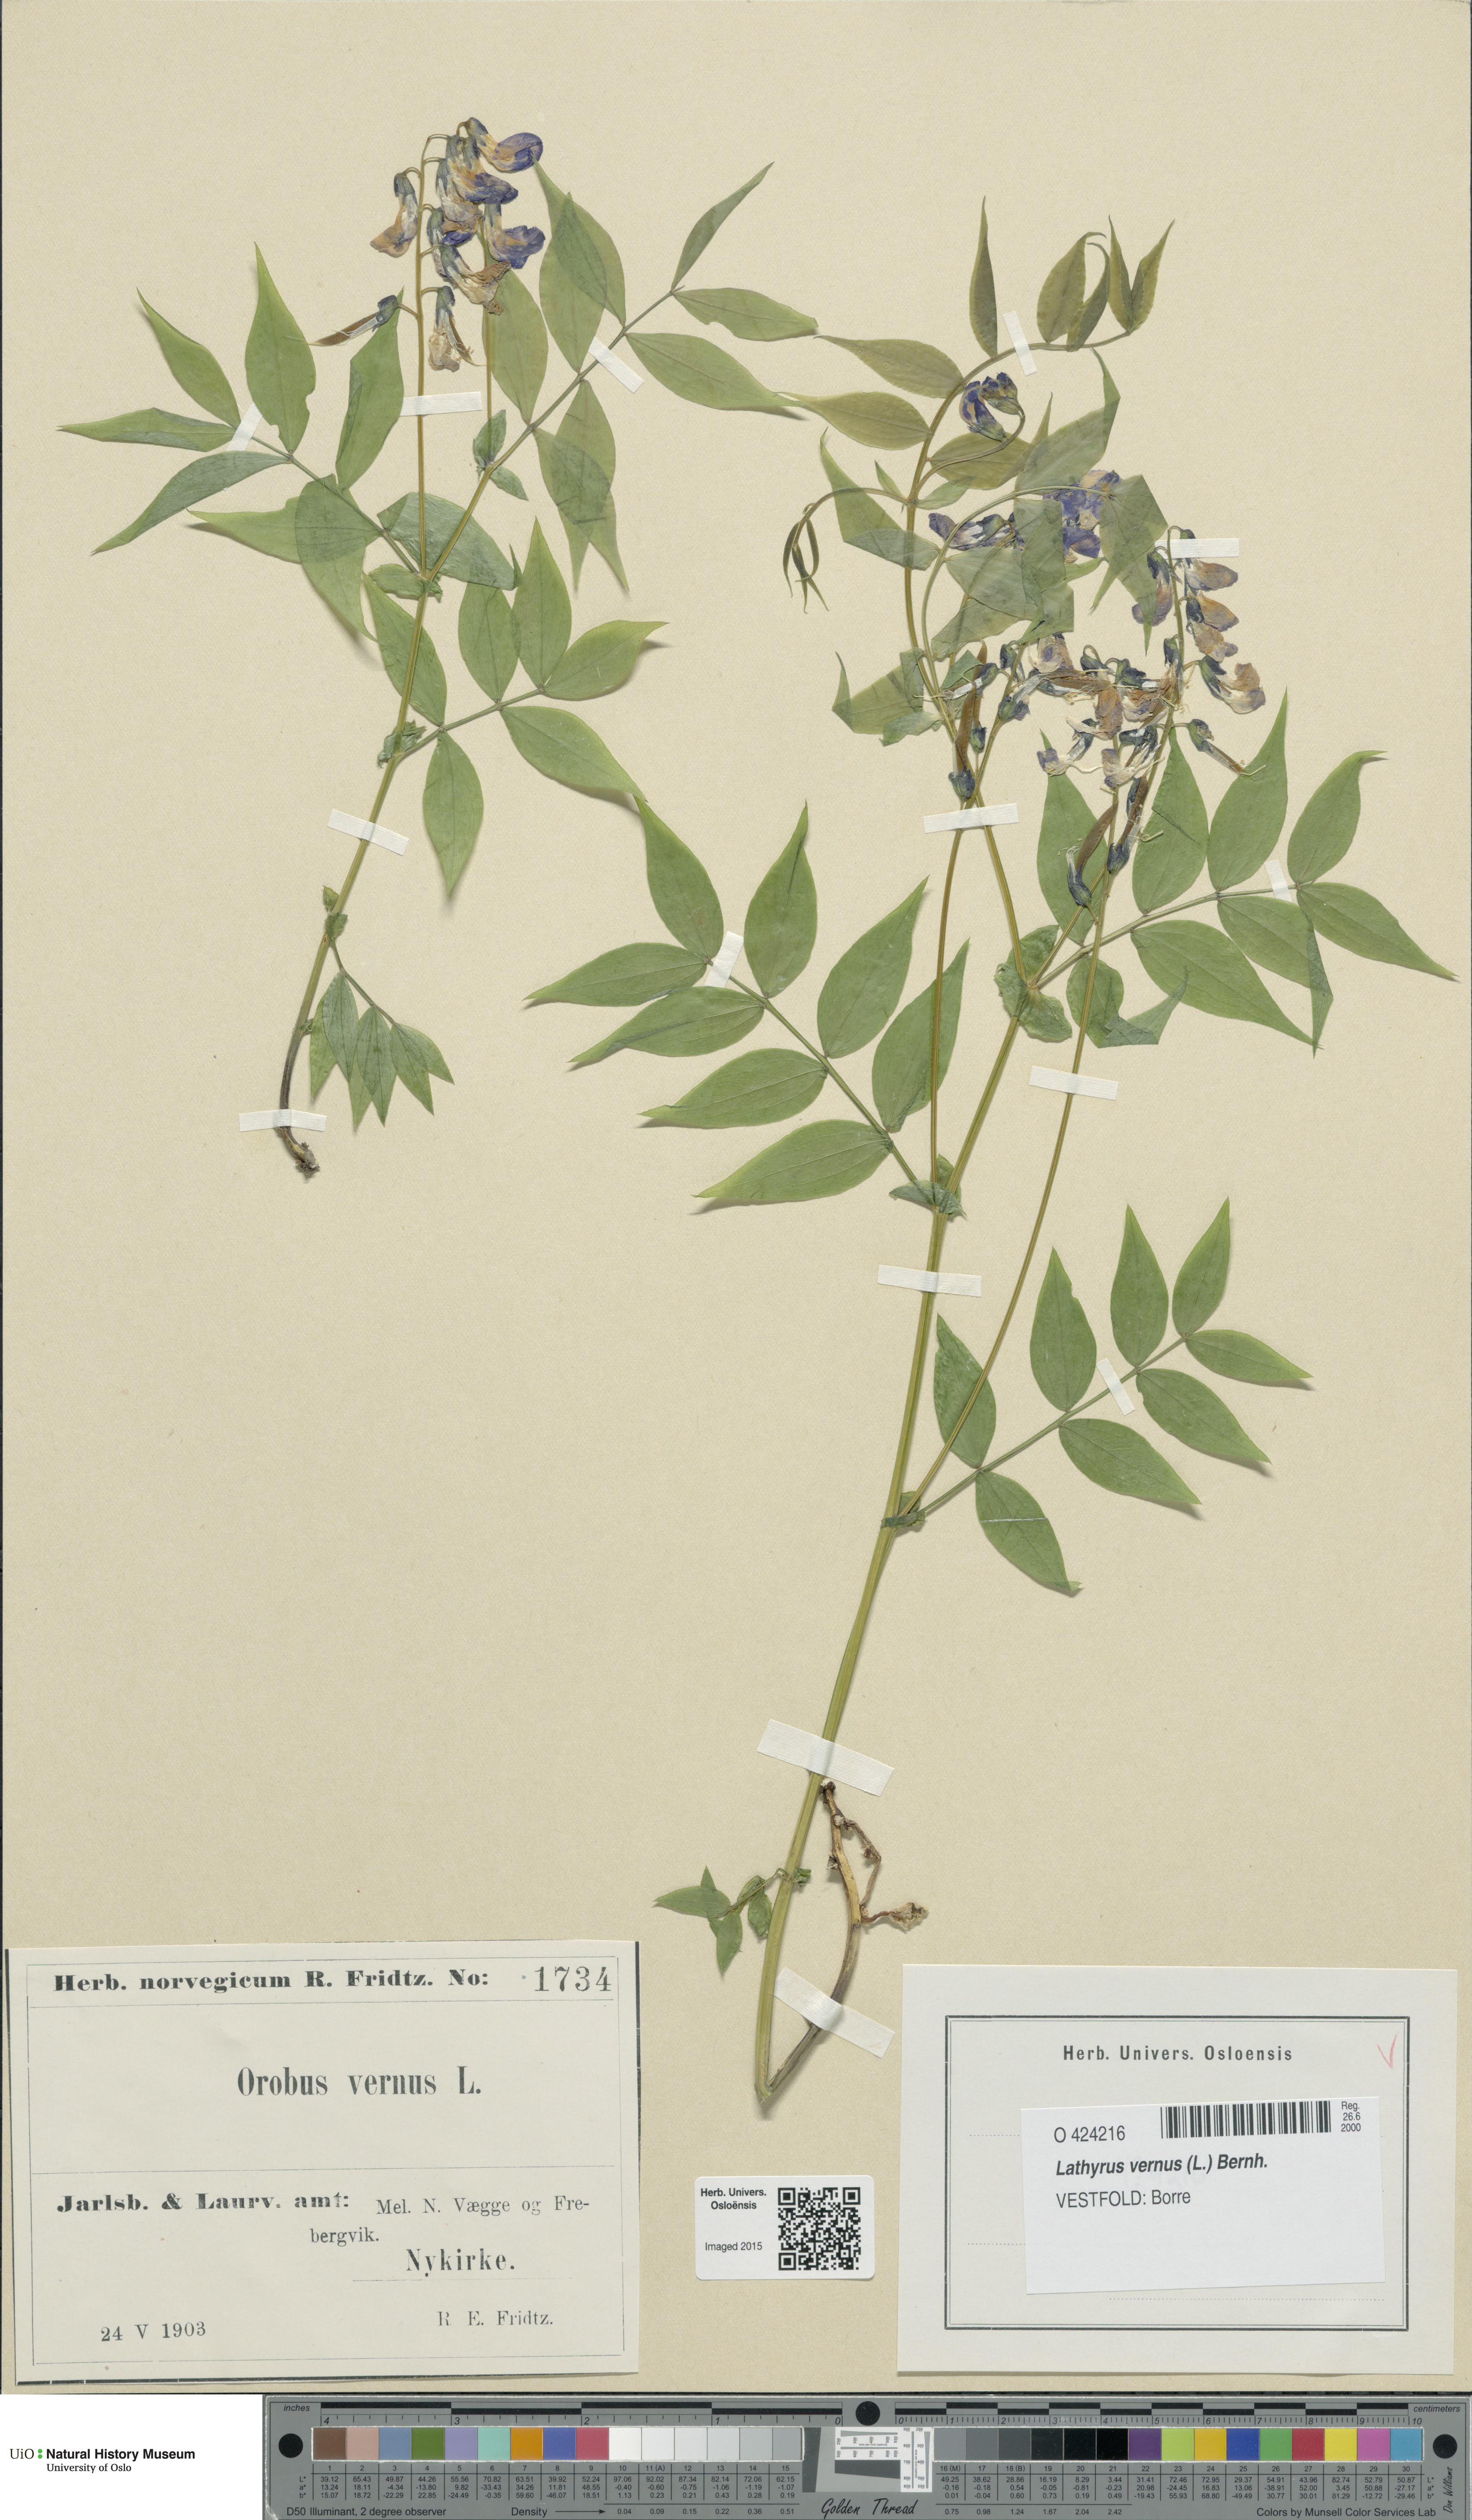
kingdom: Plantae
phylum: Tracheophyta
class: Magnoliopsida
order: Fabales
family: Fabaceae
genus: Lathyrus
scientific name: Lathyrus vernus
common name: Spring pea
